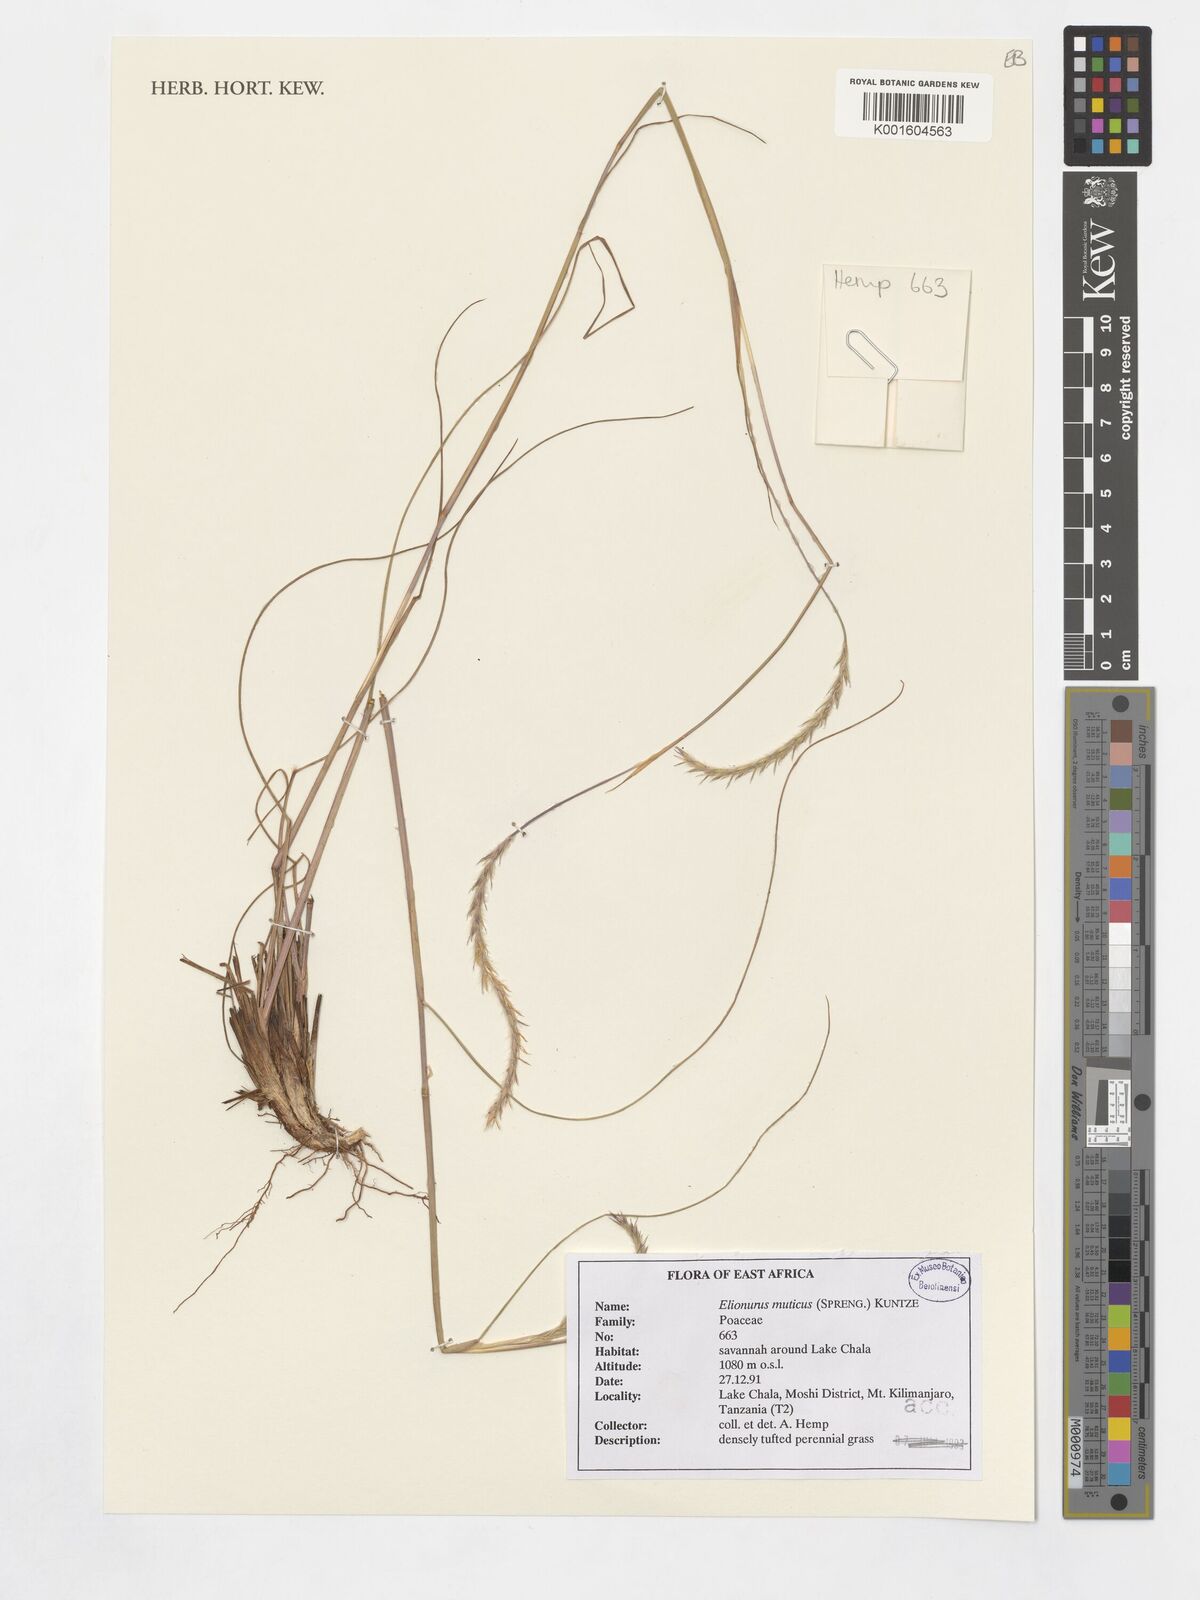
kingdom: Plantae
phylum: Tracheophyta
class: Liliopsida
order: Poales
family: Poaceae
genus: Elionurus
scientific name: Elionurus muticus
